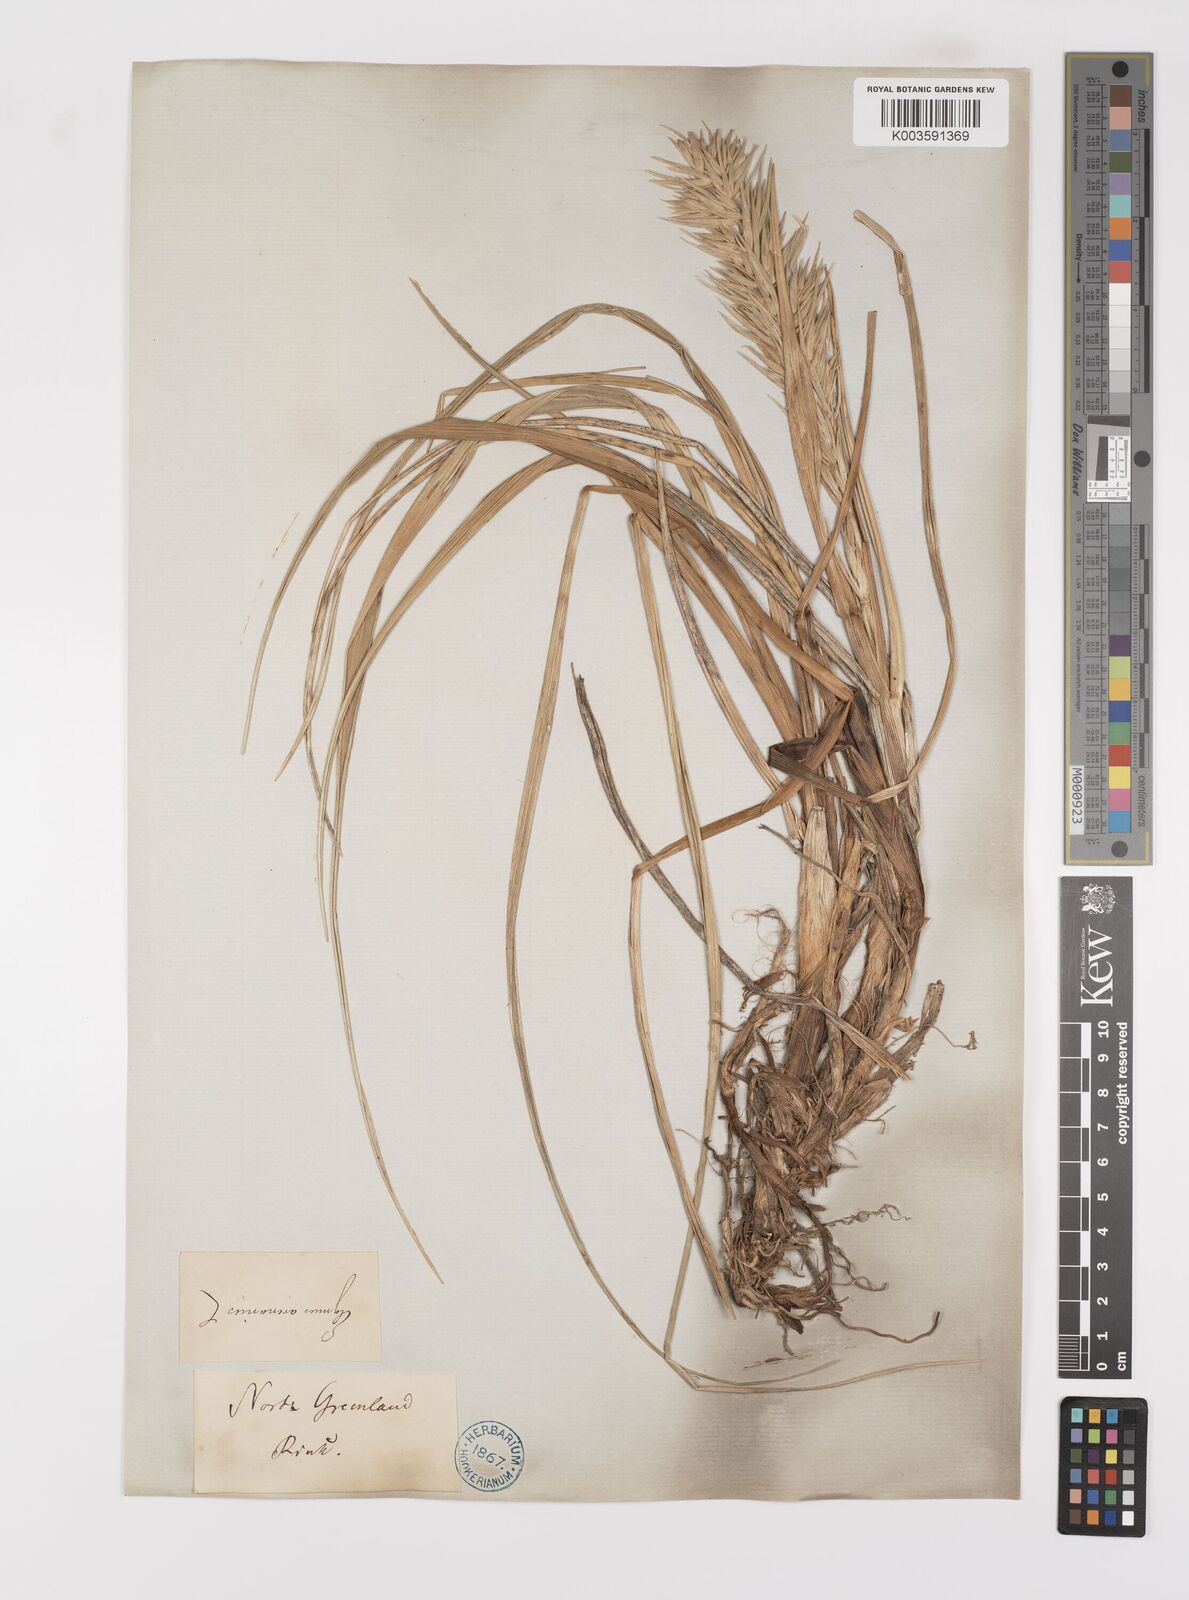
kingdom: Plantae
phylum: Tracheophyta
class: Liliopsida
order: Poales
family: Poaceae
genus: Leymus
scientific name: Leymus mollis
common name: American dune grass
